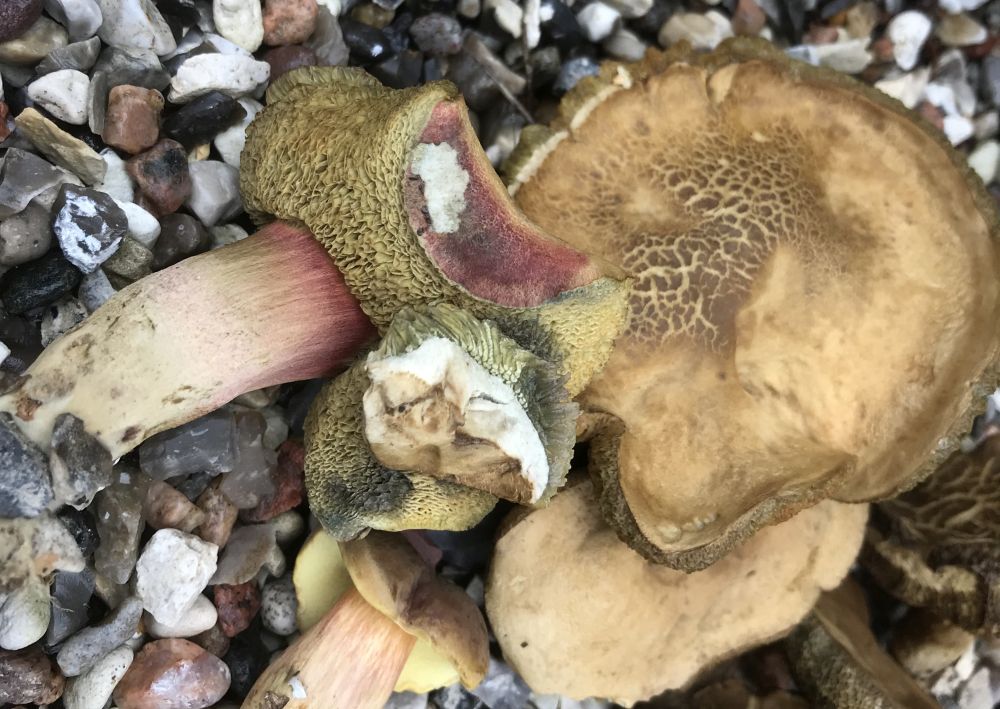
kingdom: Fungi
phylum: Basidiomycota
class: Agaricomycetes
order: Boletales
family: Boletaceae
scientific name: Boletaceae
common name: rørhatfamilien
